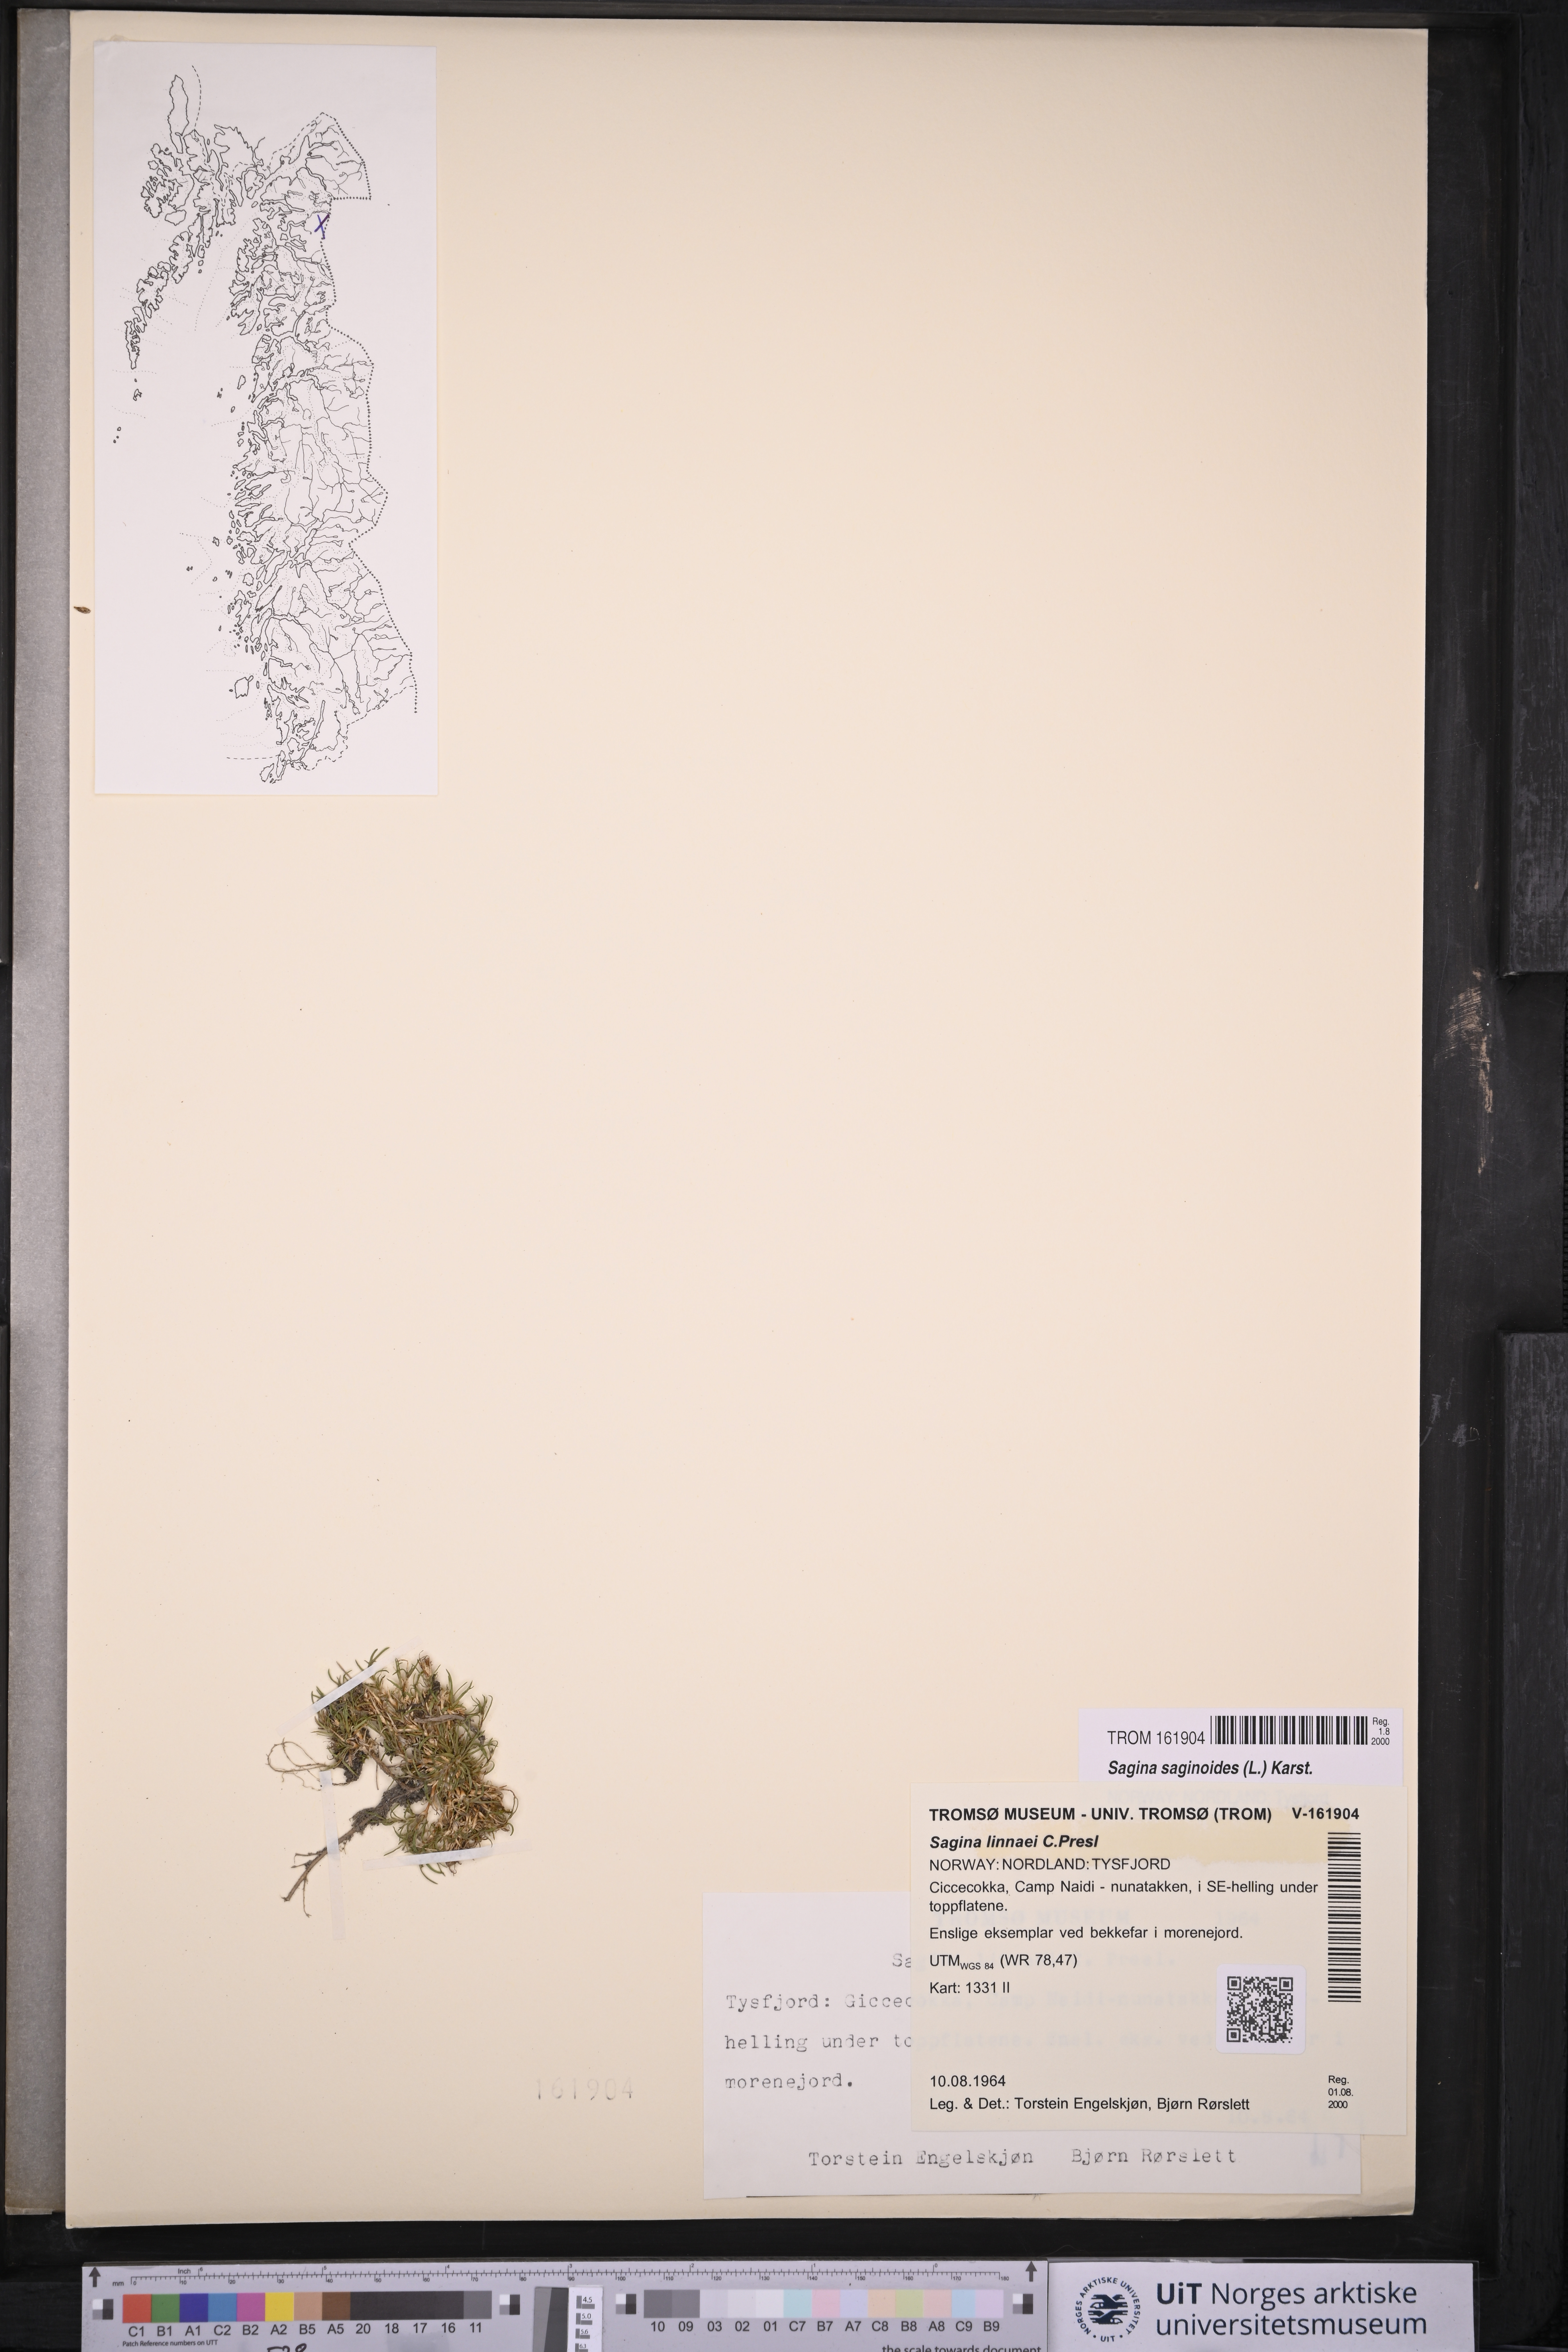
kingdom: Plantae
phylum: Tracheophyta
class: Magnoliopsida
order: Caryophyllales
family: Caryophyllaceae
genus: Sagina
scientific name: Sagina saginoides
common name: Alpine pearlwort
